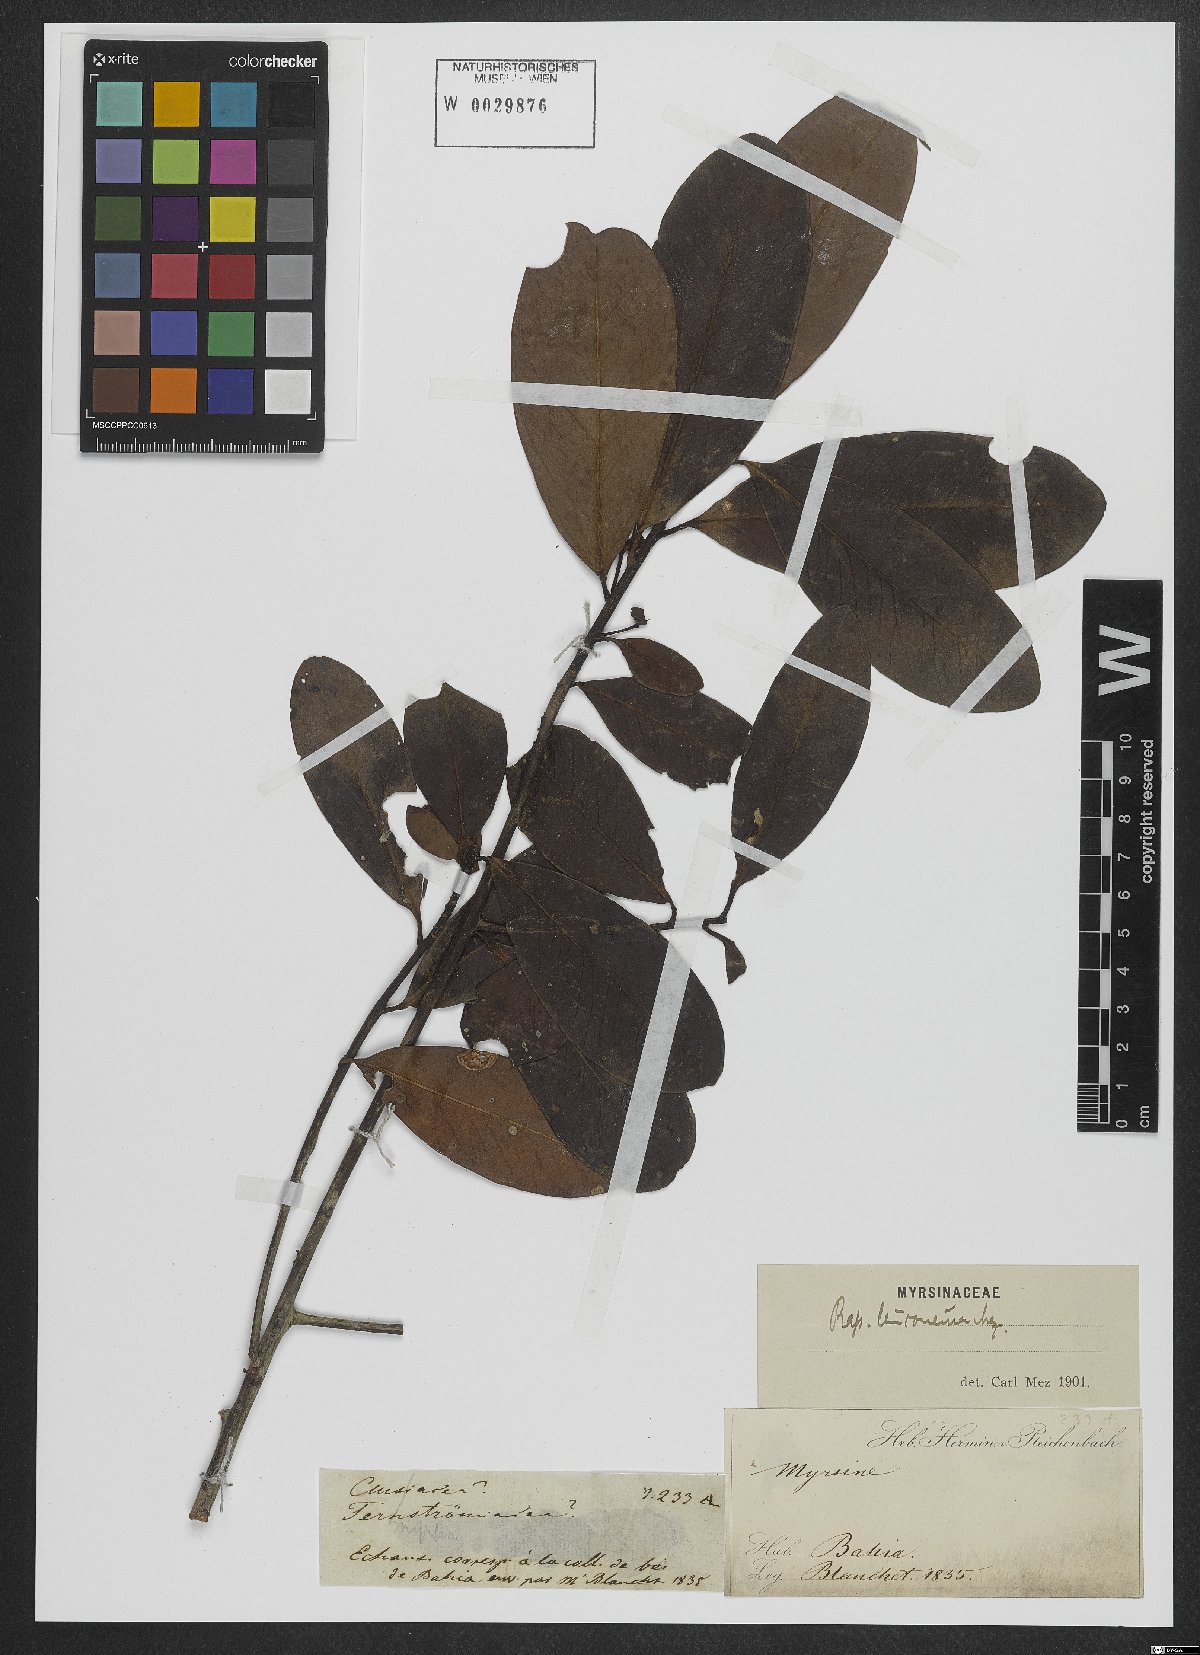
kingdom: Plantae
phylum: Tracheophyta
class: Magnoliopsida
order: Ericales
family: Primulaceae
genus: Myrsine
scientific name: Myrsine leuconeura
